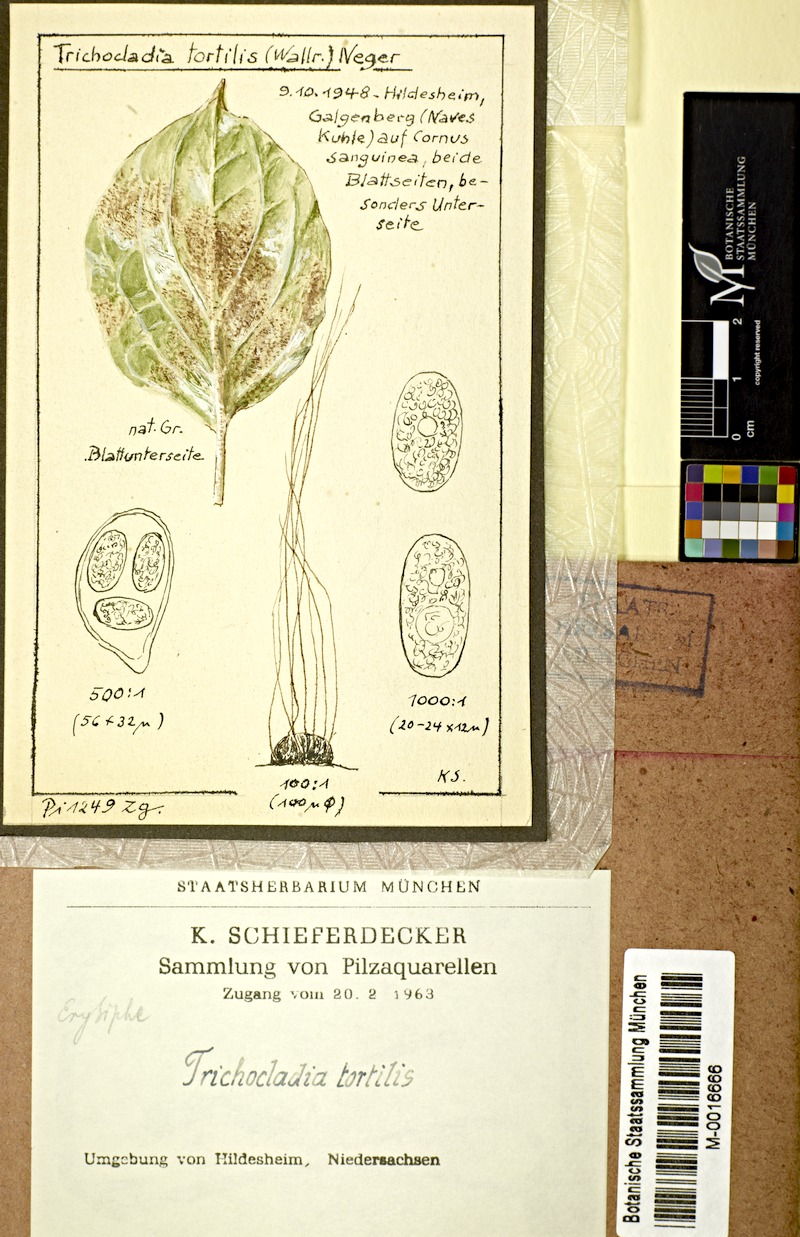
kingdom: Plantae
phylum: Tracheophyta
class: Magnoliopsida
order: Cornales
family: Cornaceae
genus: Cornus
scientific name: Cornus sanguinea
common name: Dogwood
